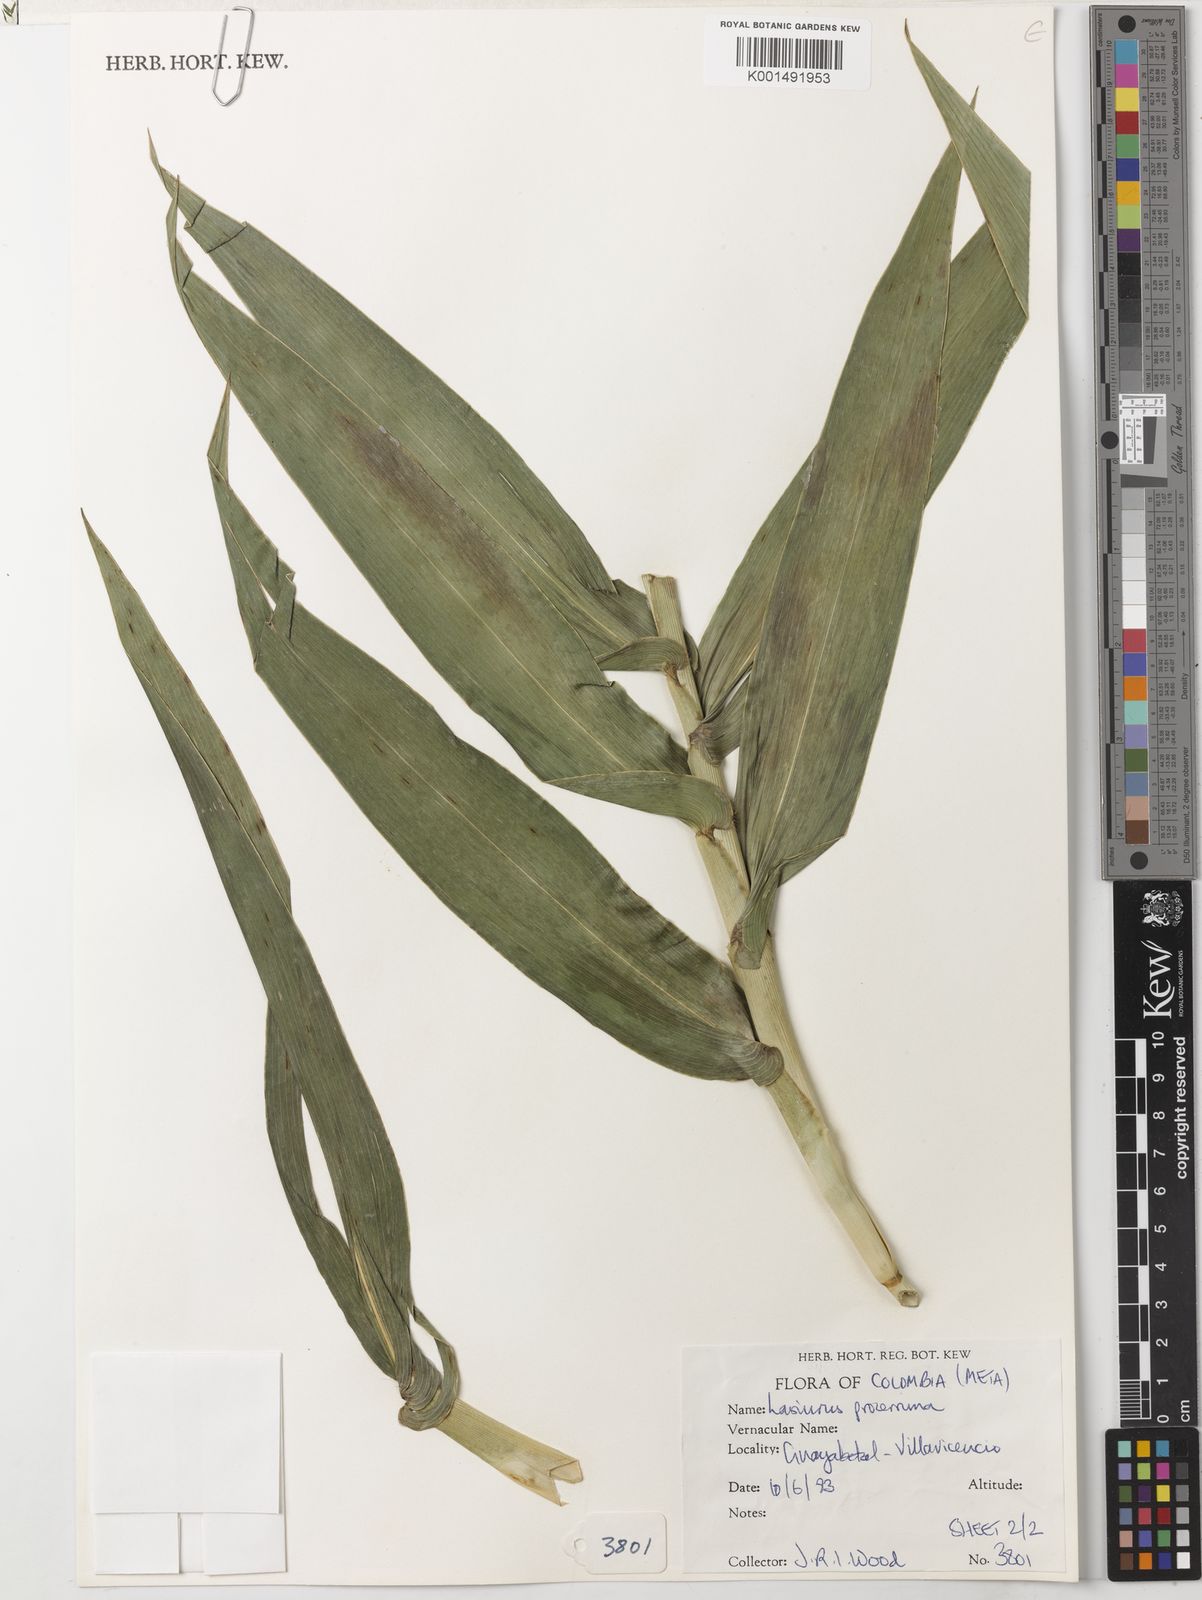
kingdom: Plantae
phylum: Tracheophyta
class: Liliopsida
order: Poales
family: Poaceae
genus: Lasiacis
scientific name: Lasiacis procerrima
